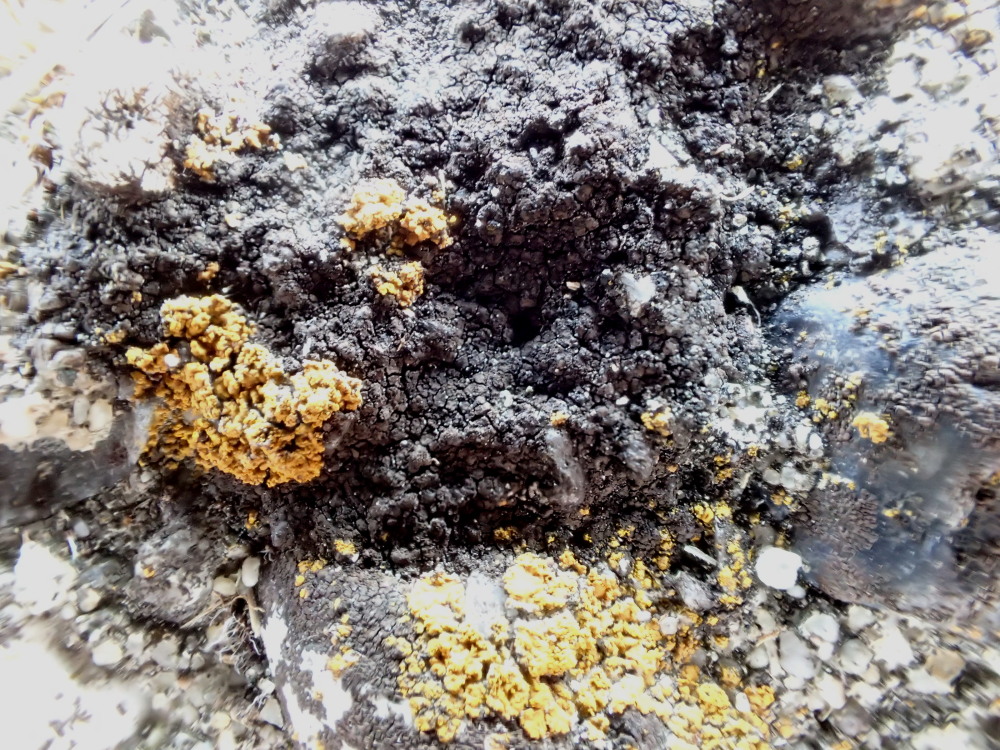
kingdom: Fungi
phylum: Ascomycota
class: Eurotiomycetes
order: Verrucariales
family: Verrucariaceae
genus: Verrucaria
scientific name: Verrucaria nigrescens
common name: sortbrun vortelav
